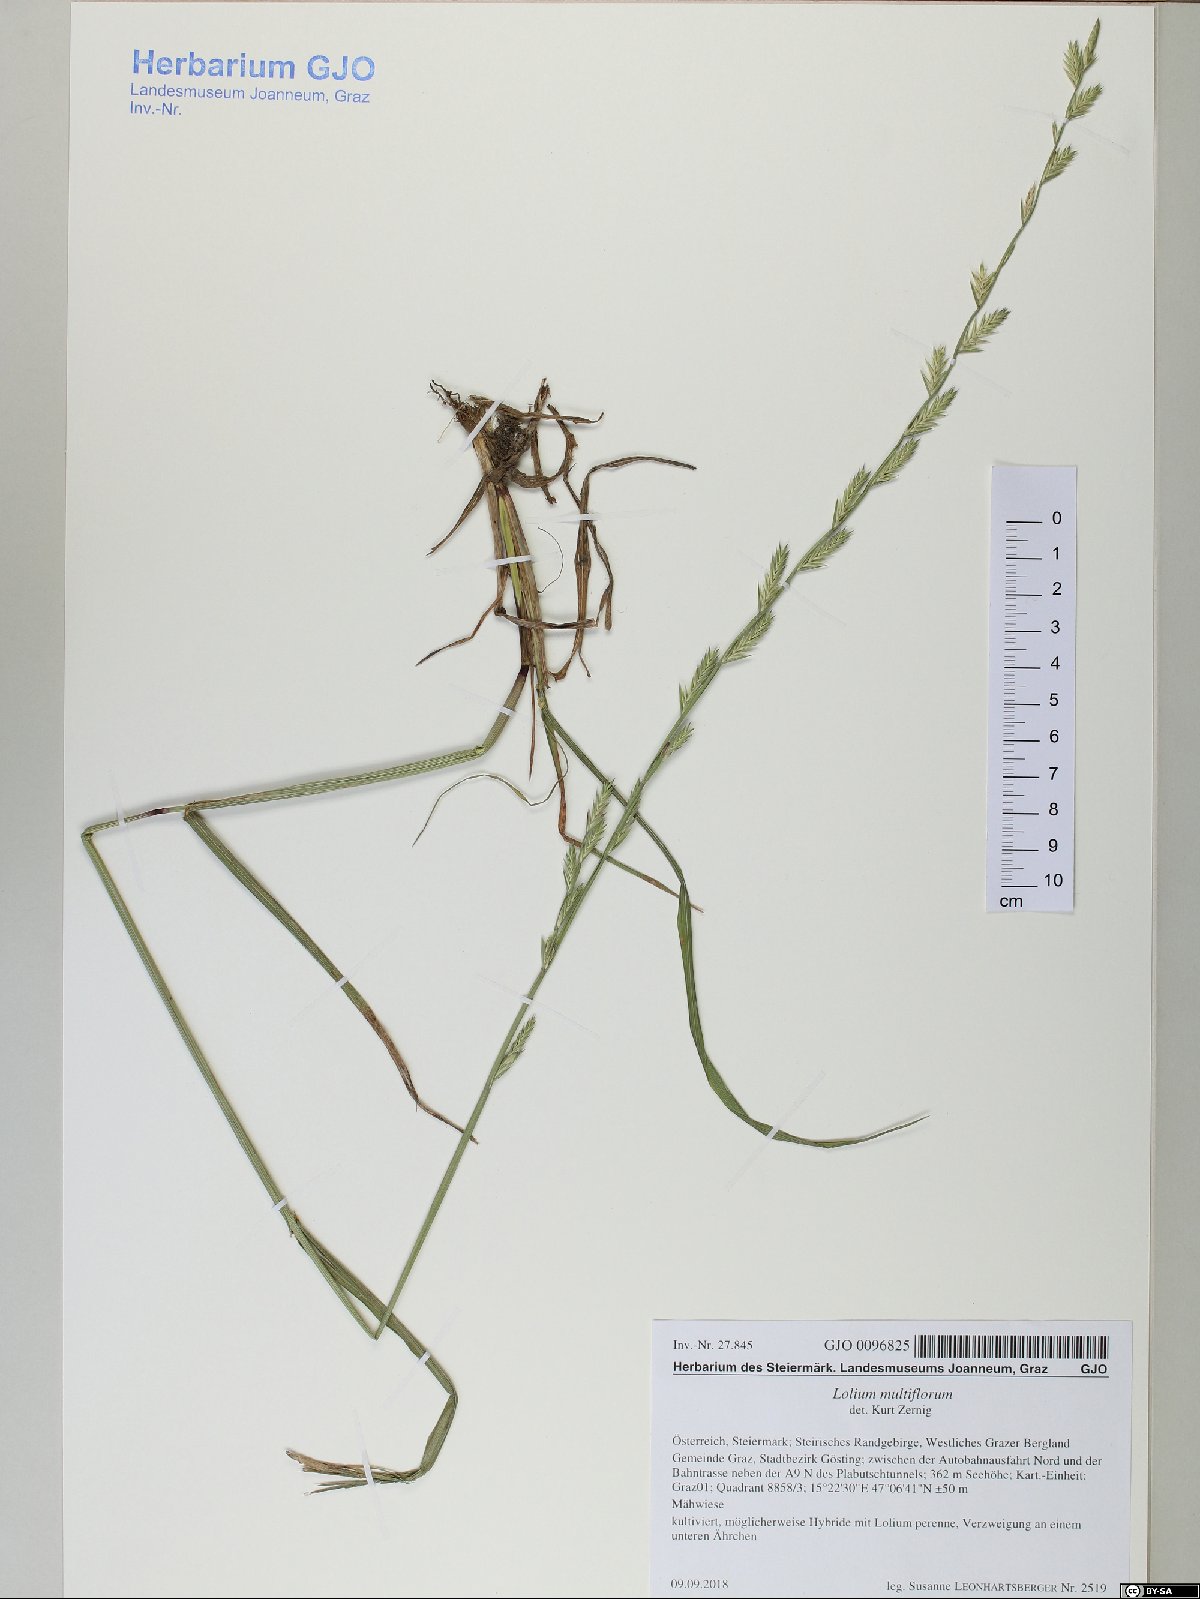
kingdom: Plantae
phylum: Tracheophyta
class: Liliopsida
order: Poales
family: Poaceae
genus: Lolium
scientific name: Lolium multiflorum
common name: Annual ryegrass
